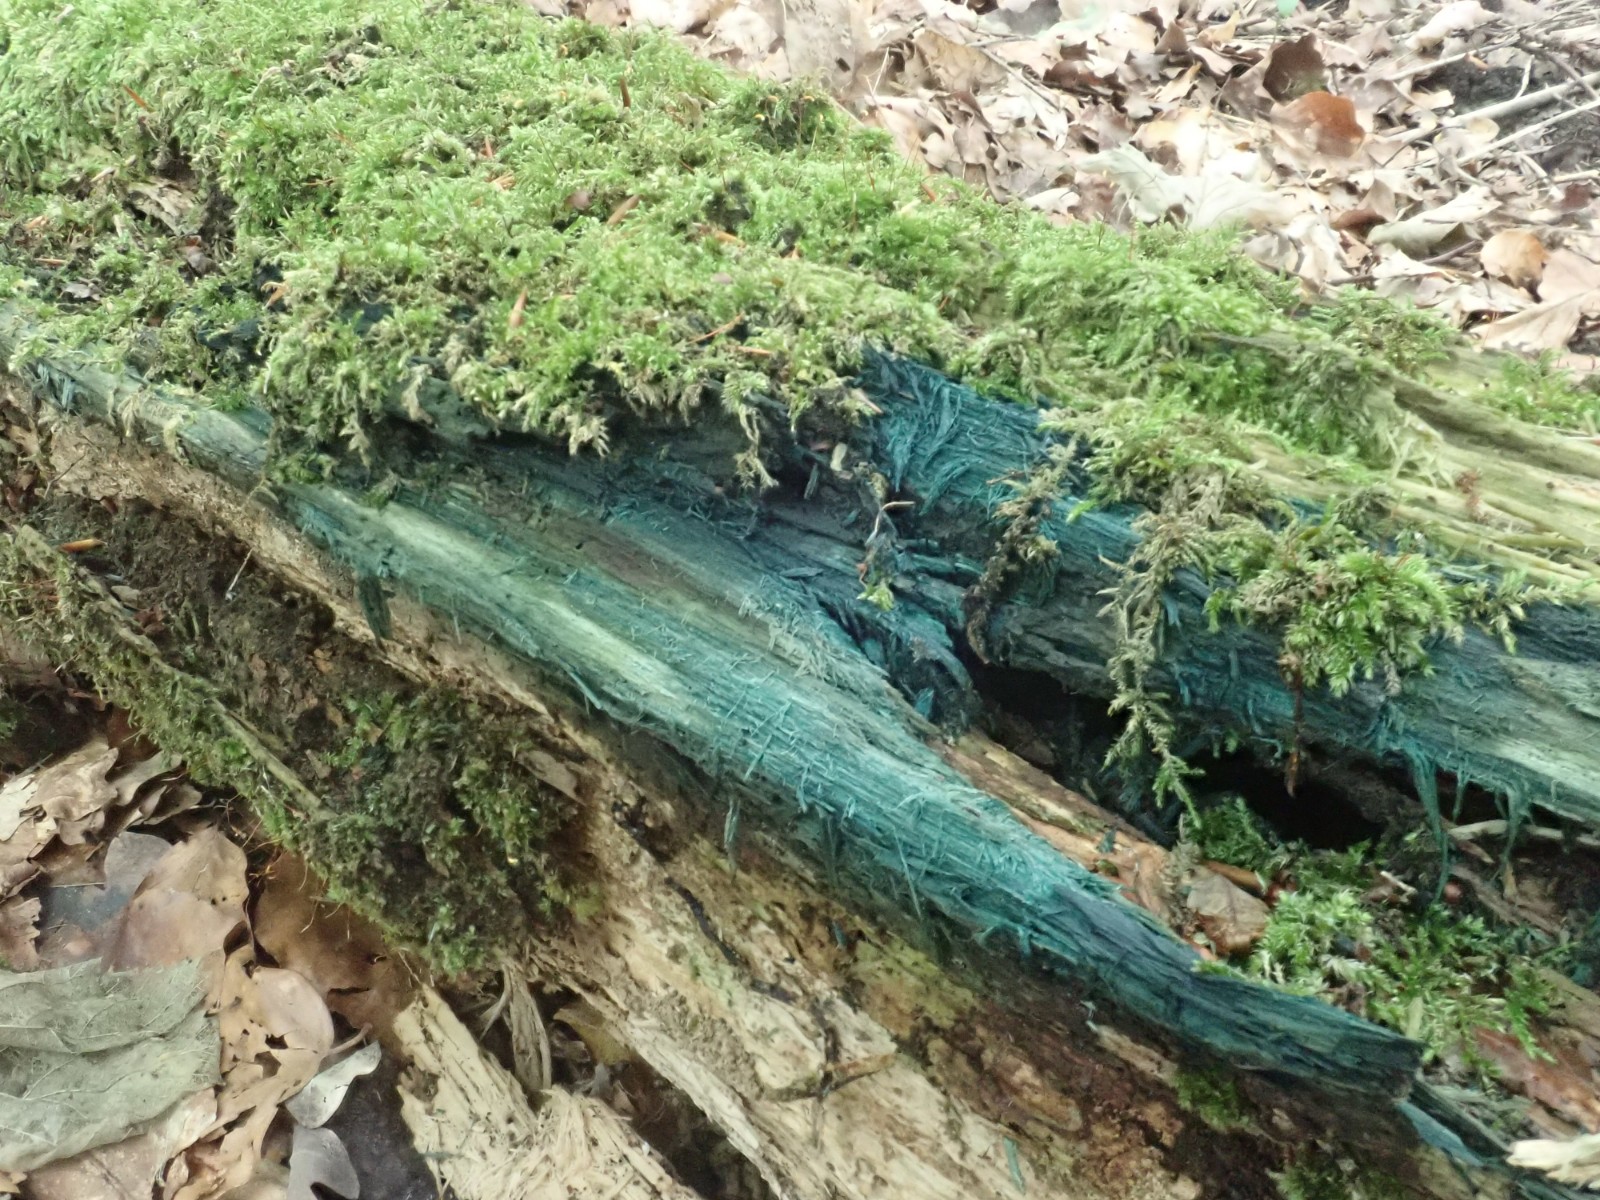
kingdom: Fungi
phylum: Ascomycota
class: Leotiomycetes
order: Helotiales
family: Chlorociboriaceae
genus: Chlorociboria
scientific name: Chlorociboria
